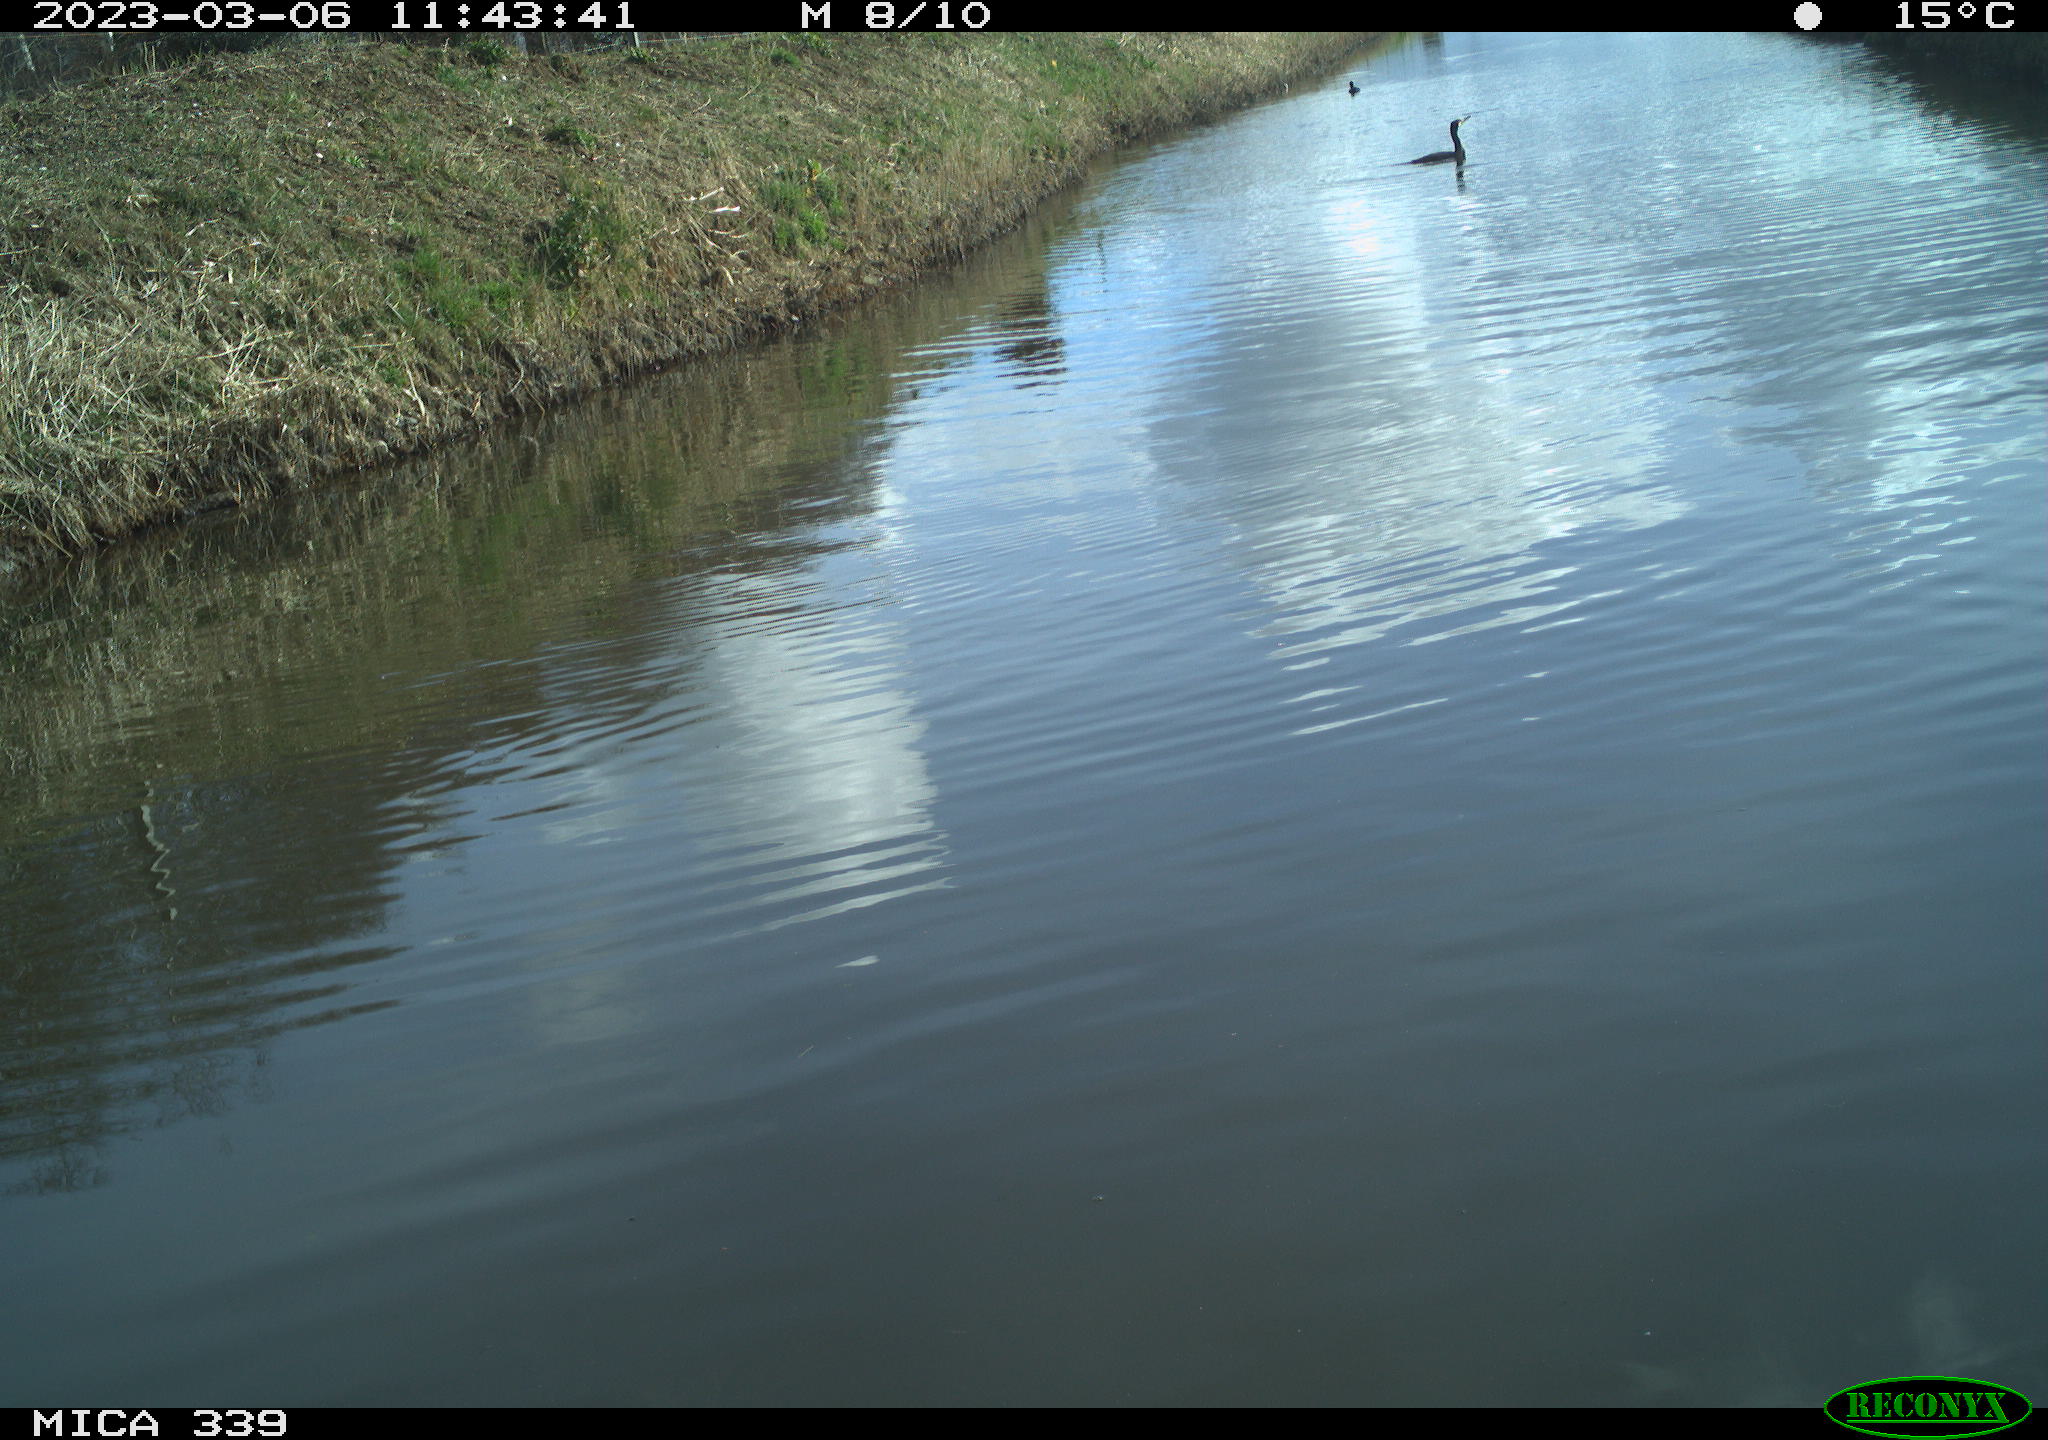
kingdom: Animalia
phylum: Chordata
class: Aves
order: Suliformes
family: Phalacrocoracidae
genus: Phalacrocorax
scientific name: Phalacrocorax carbo
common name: Great cormorant
